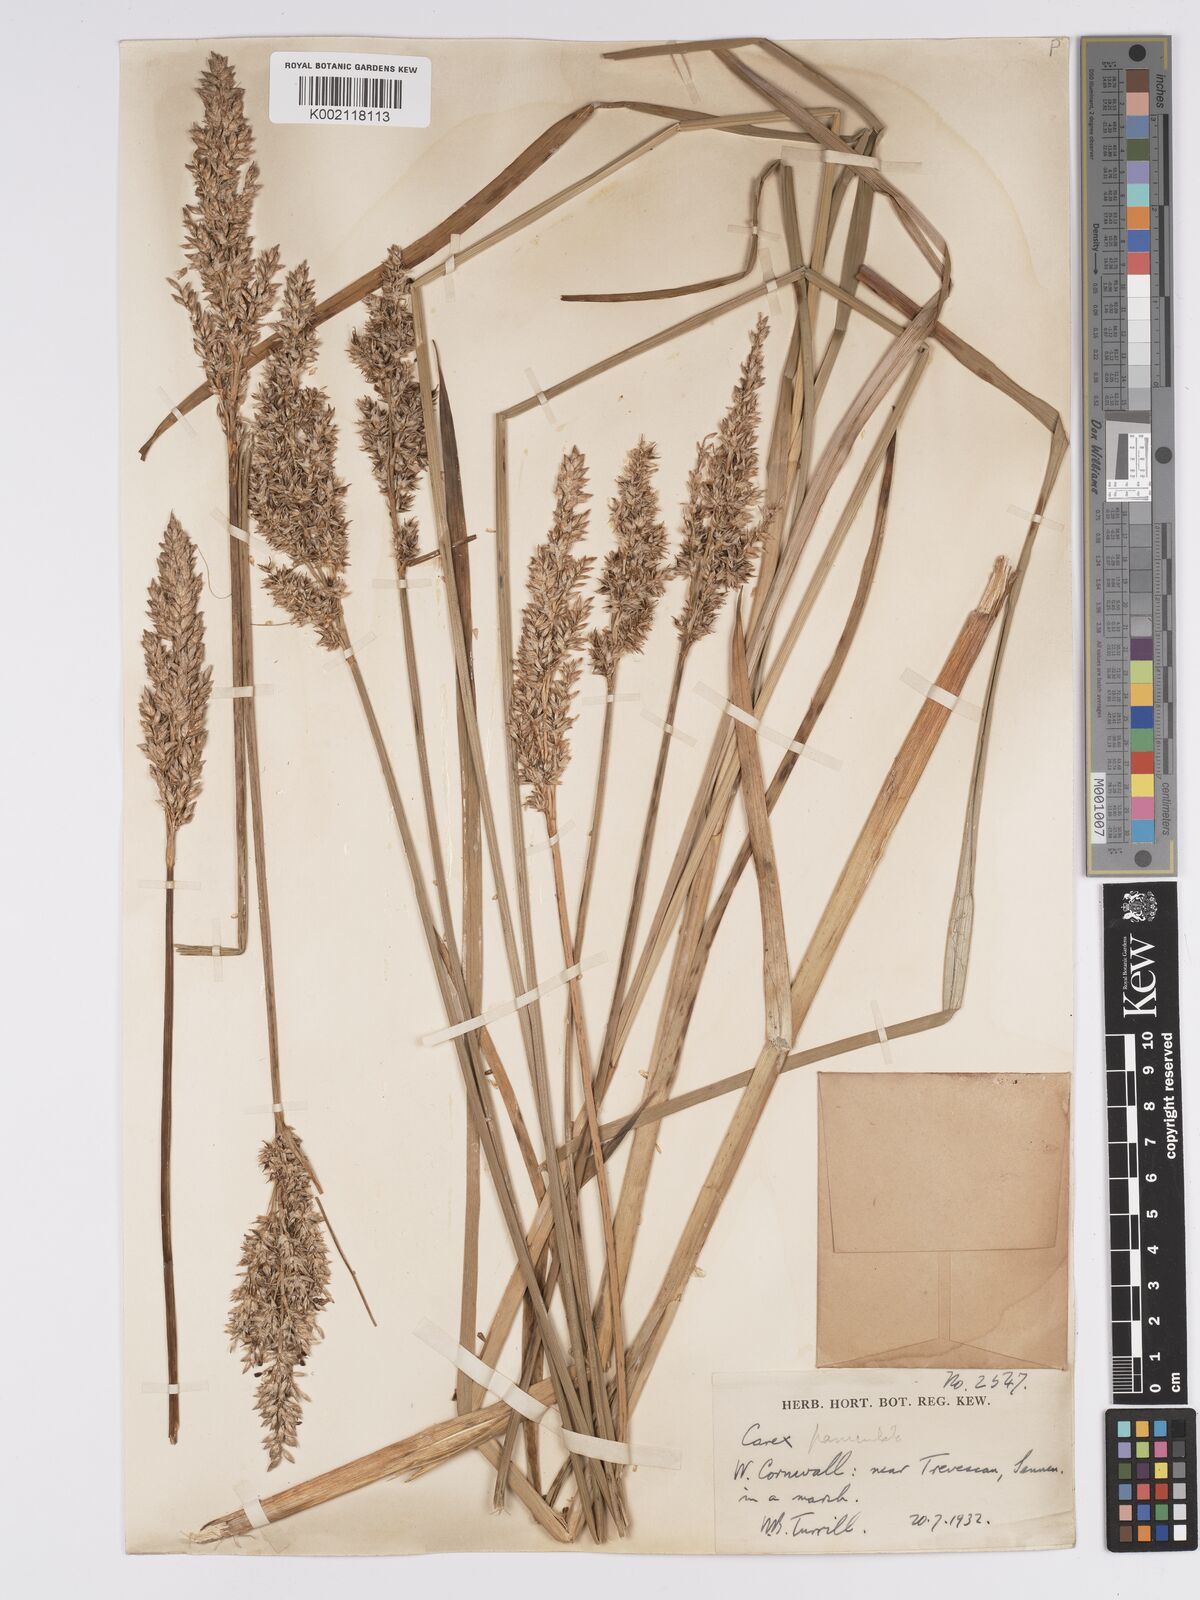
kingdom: Plantae
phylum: Tracheophyta
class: Liliopsida
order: Poales
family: Cyperaceae
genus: Carex
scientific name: Carex paniculata
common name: Greater tussock-sedge
